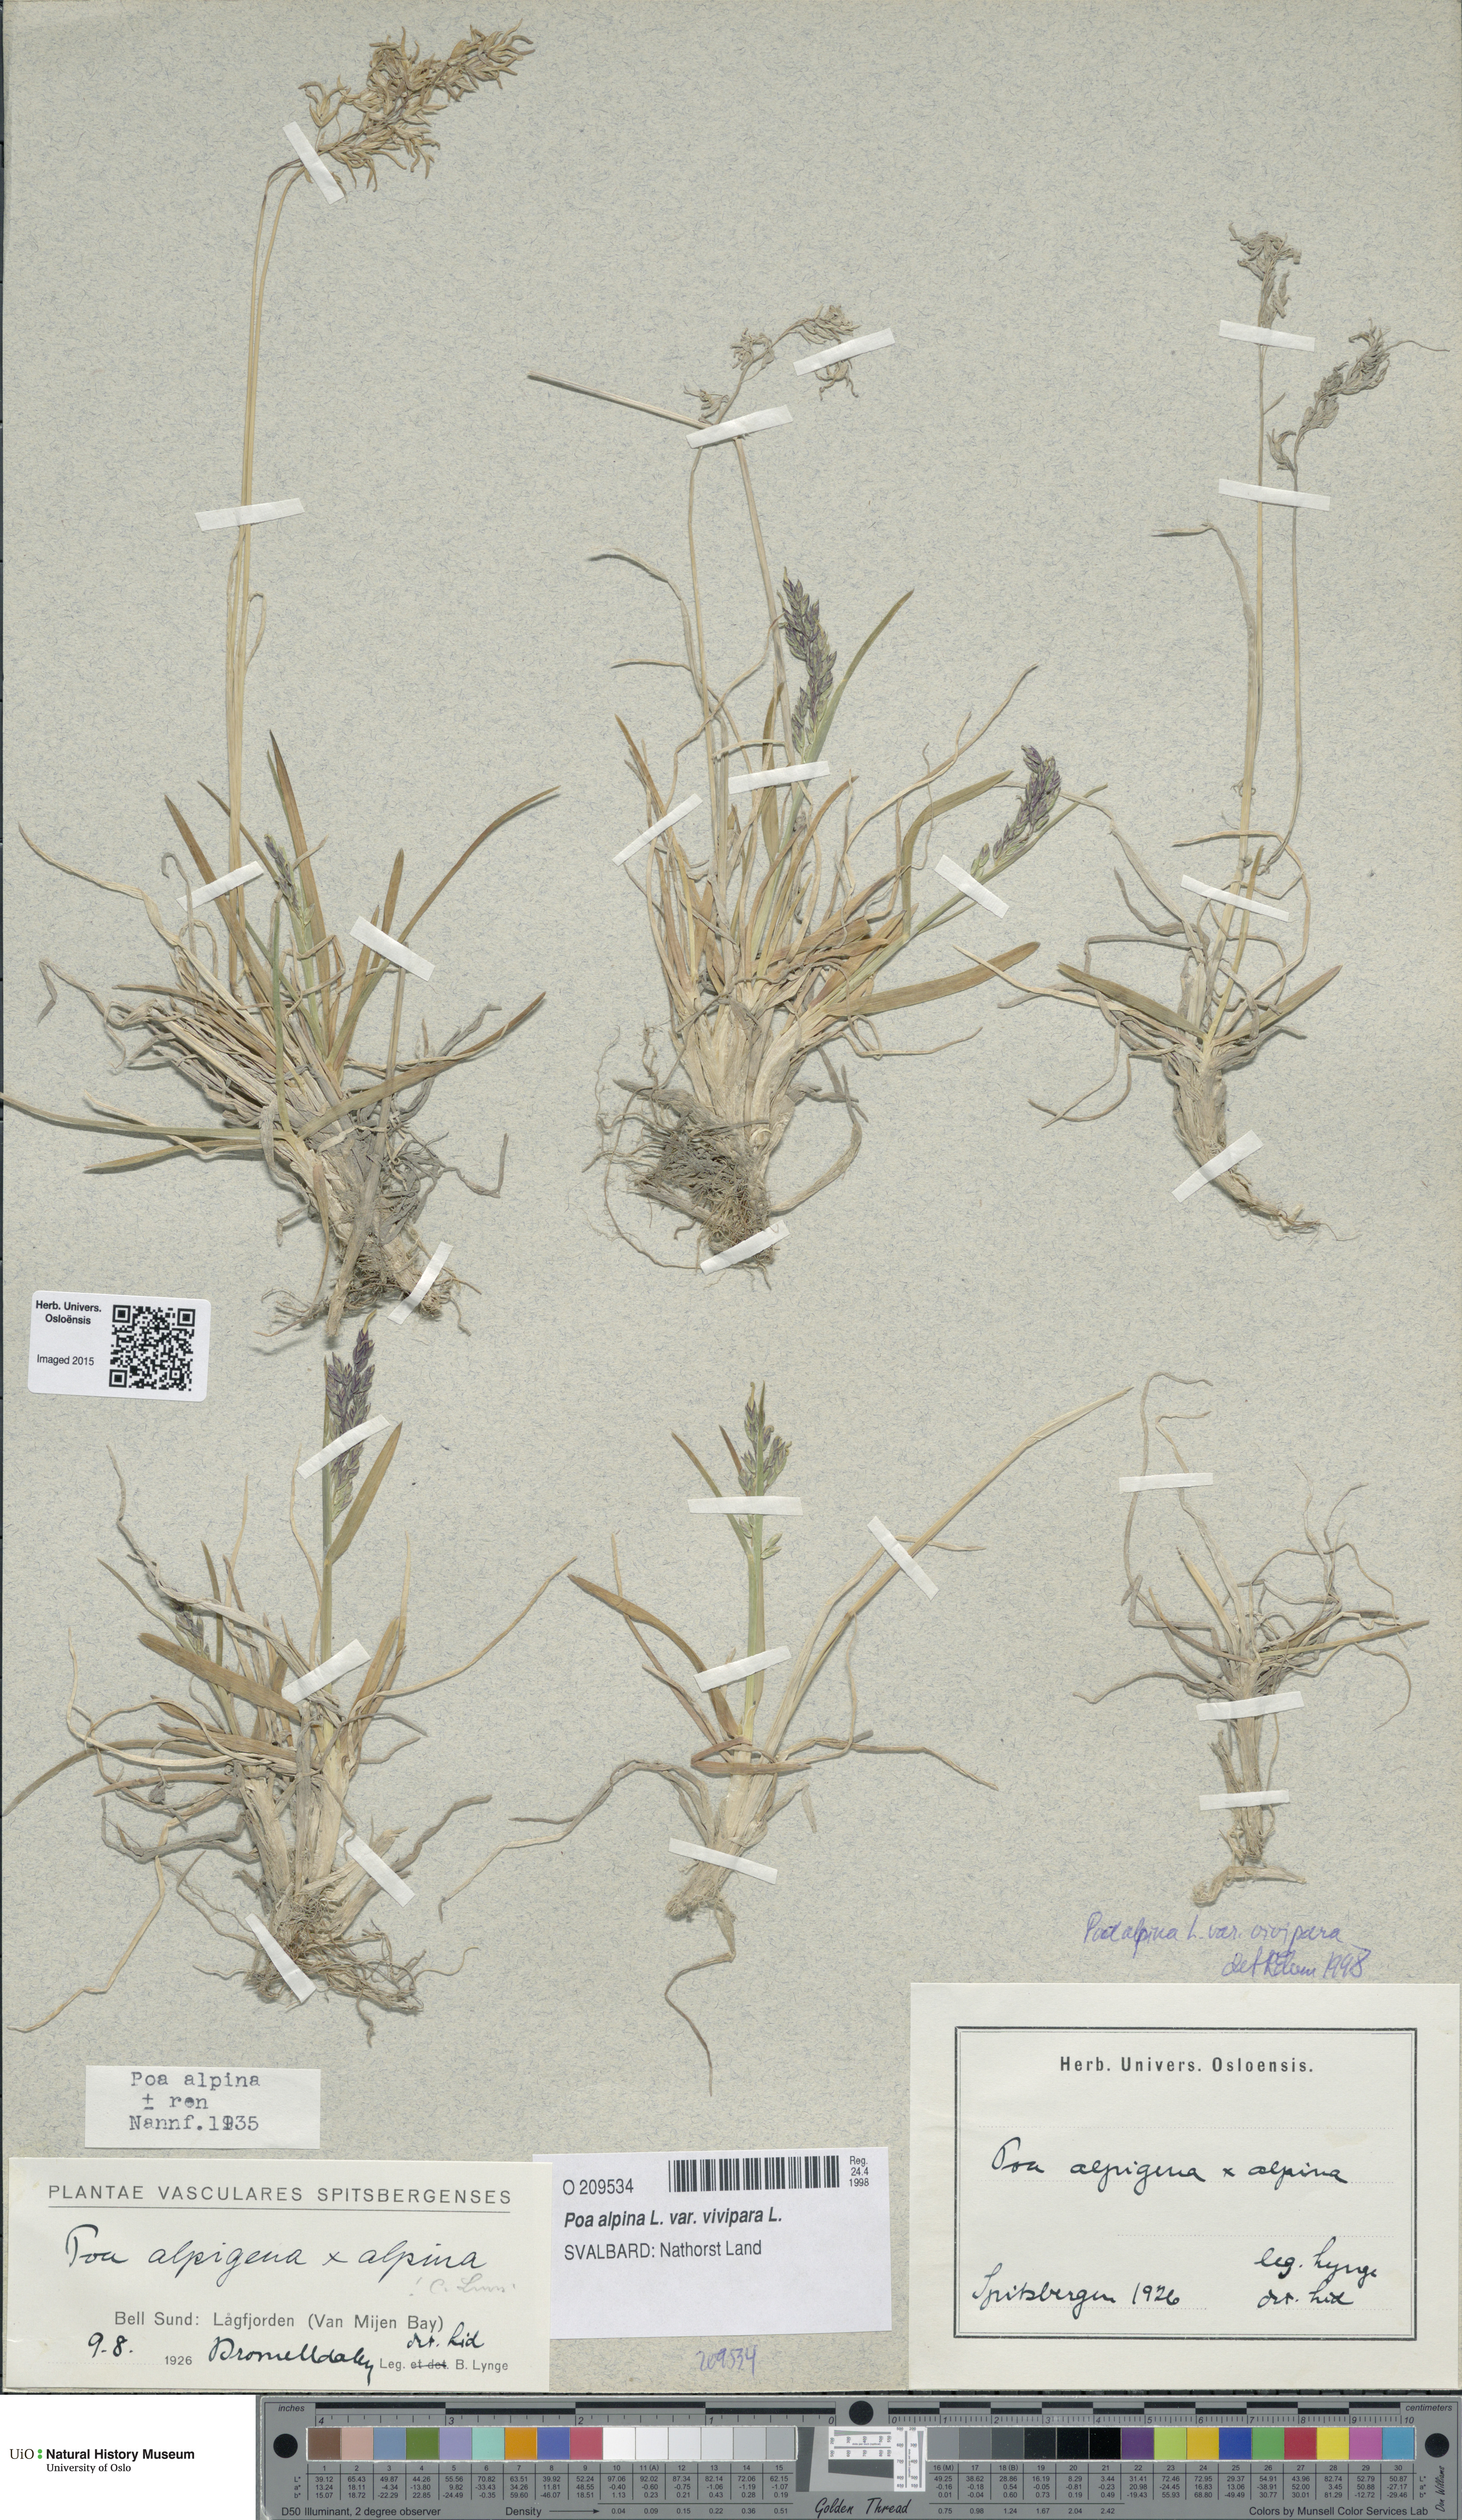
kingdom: Plantae
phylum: Tracheophyta
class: Liliopsida
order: Poales
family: Poaceae
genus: Poa
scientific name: Poa alpina
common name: Alpine bluegrass
